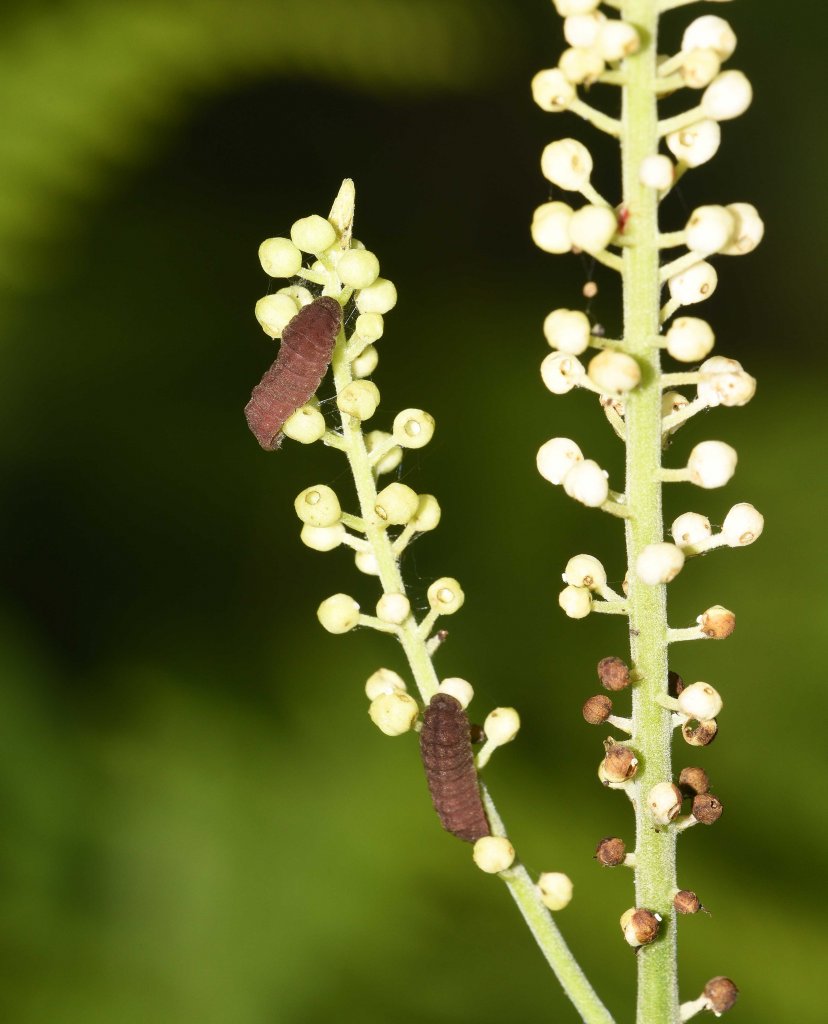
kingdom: Animalia
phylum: Arthropoda
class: Insecta
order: Lepidoptera
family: Lycaenidae
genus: Celastrina
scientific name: Celastrina neglectamajor
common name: Appalachian Azure
